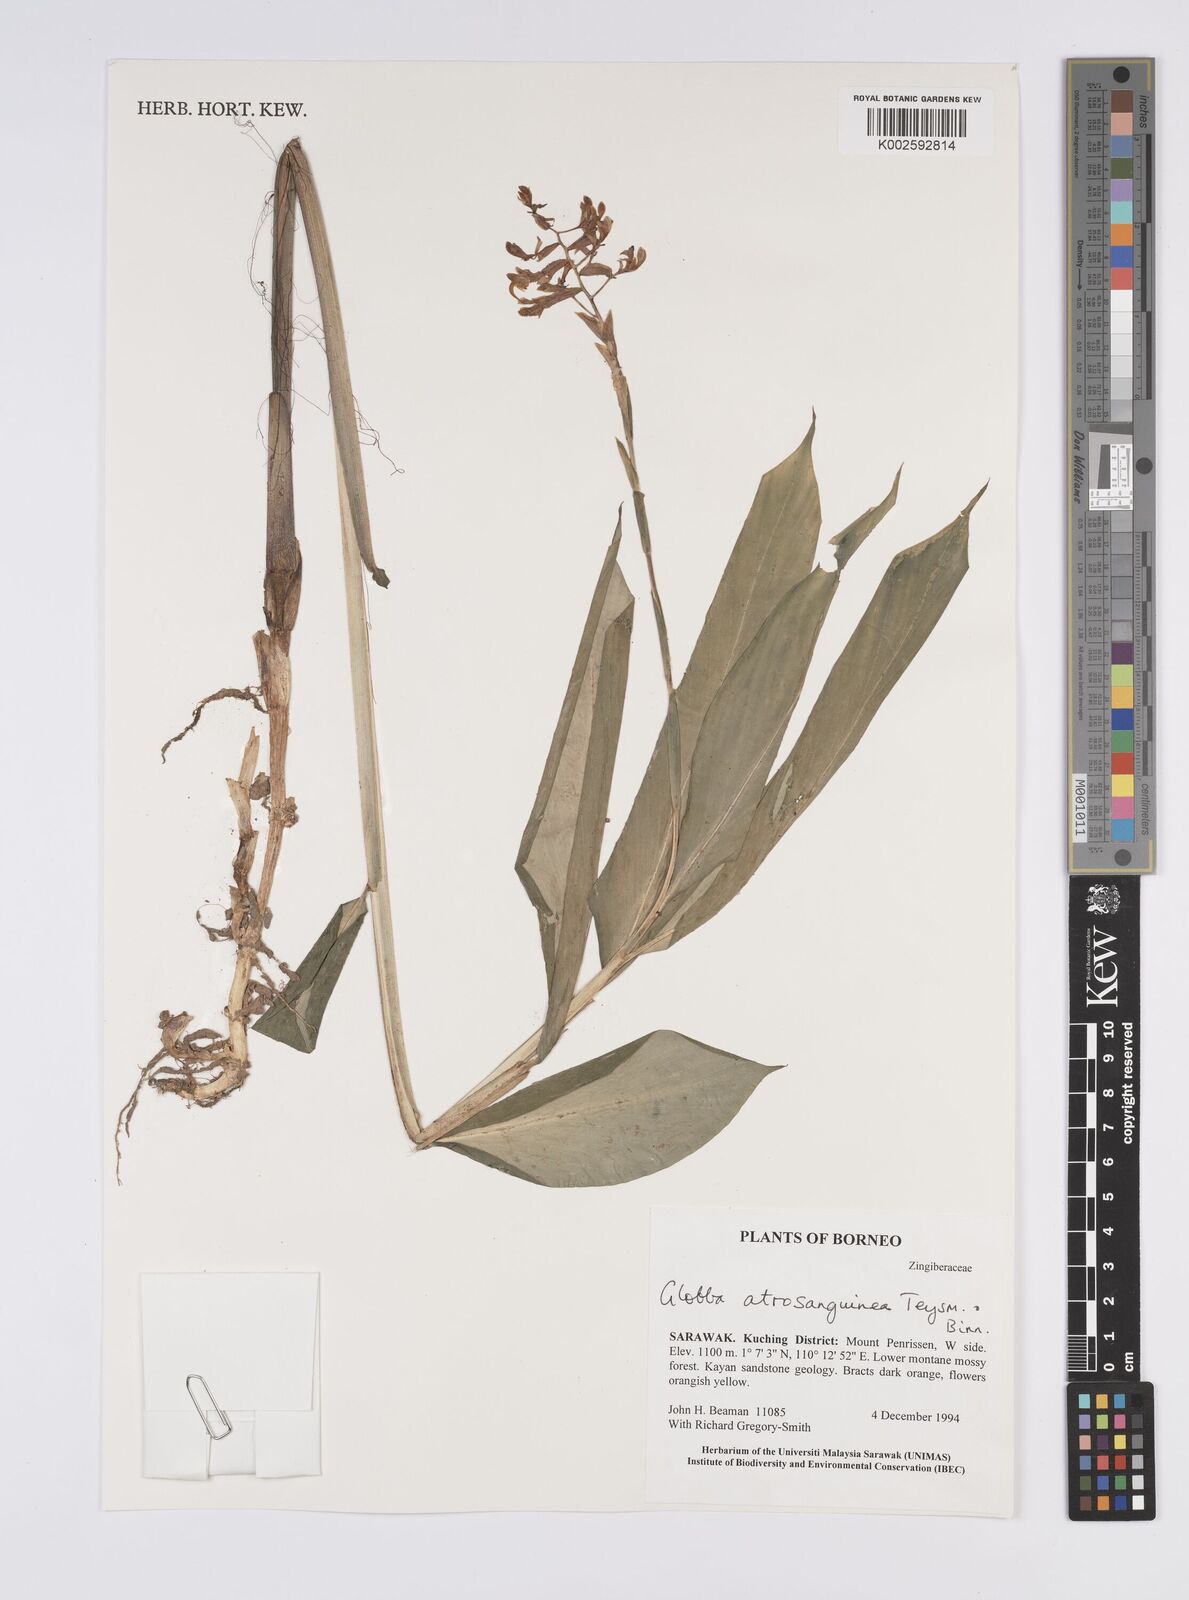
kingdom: Plantae
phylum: Tracheophyta
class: Liliopsida
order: Zingiberales
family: Zingiberaceae
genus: Globba
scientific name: Globba atrosanguinea
